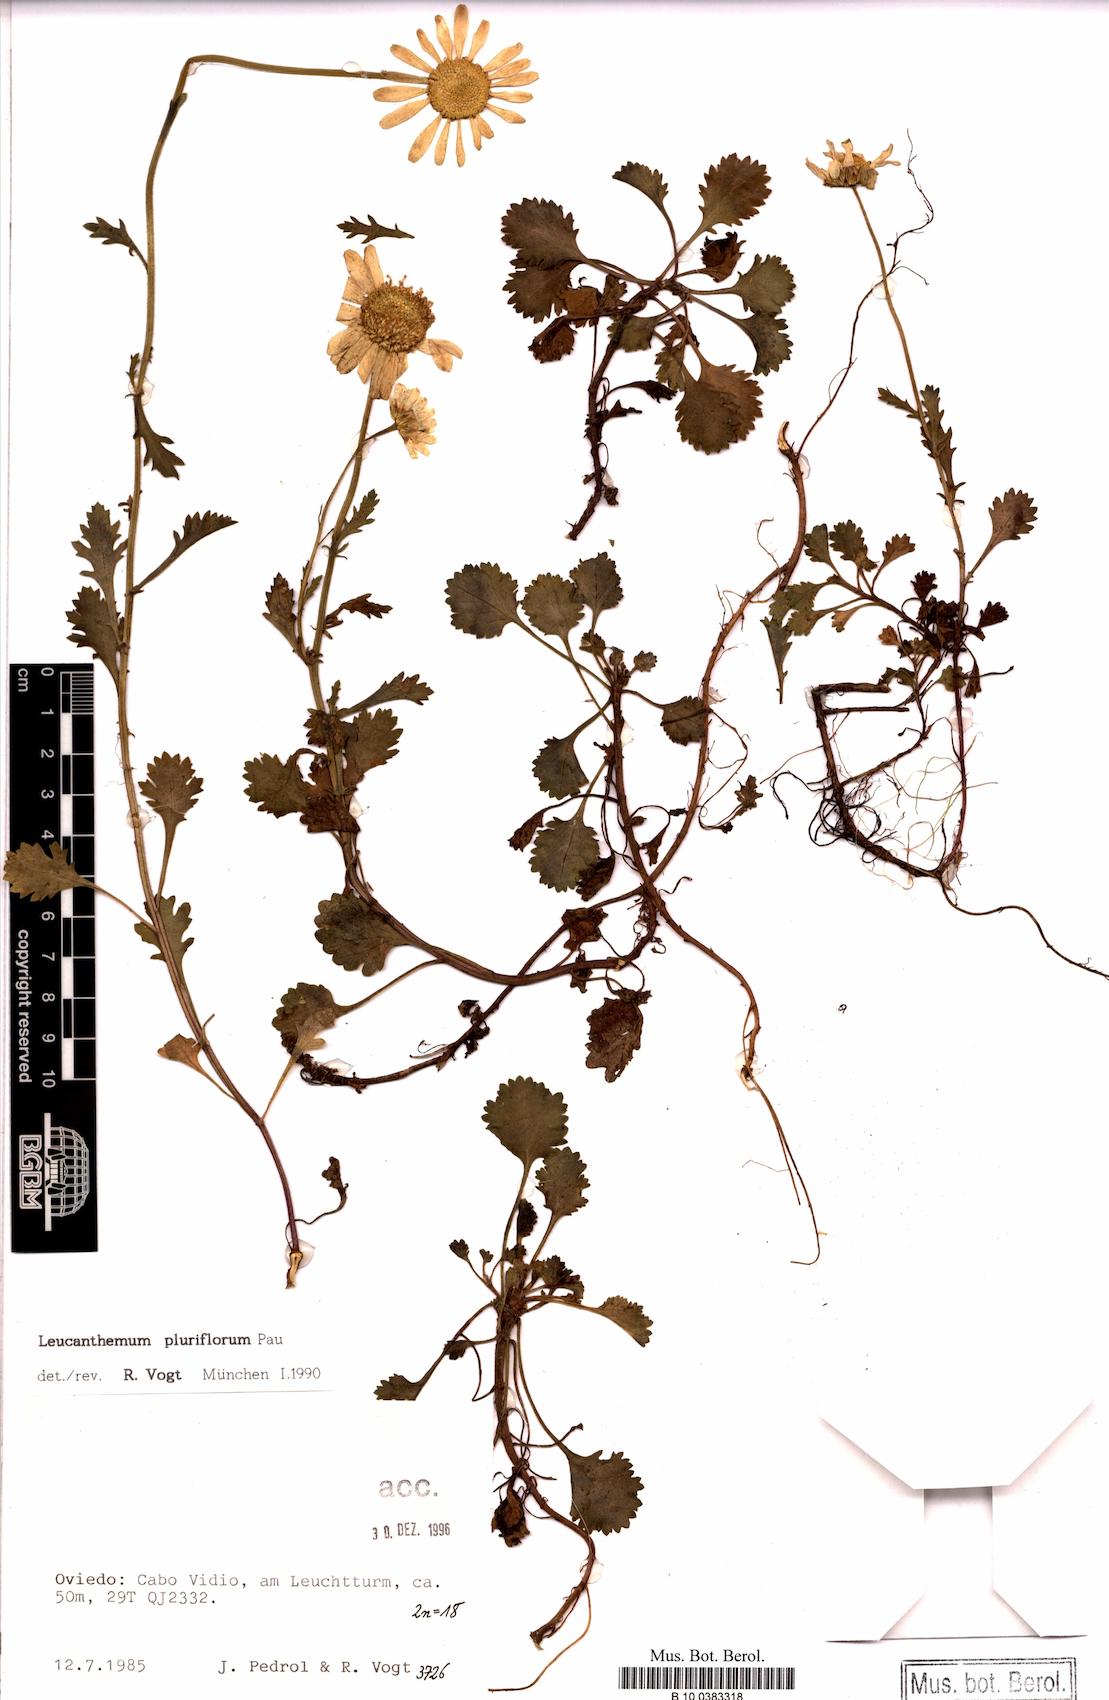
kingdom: Plantae
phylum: Tracheophyta
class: Magnoliopsida
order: Asterales
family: Asteraceae
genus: Leucanthemum
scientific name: Leucanthemum pluriflorum
